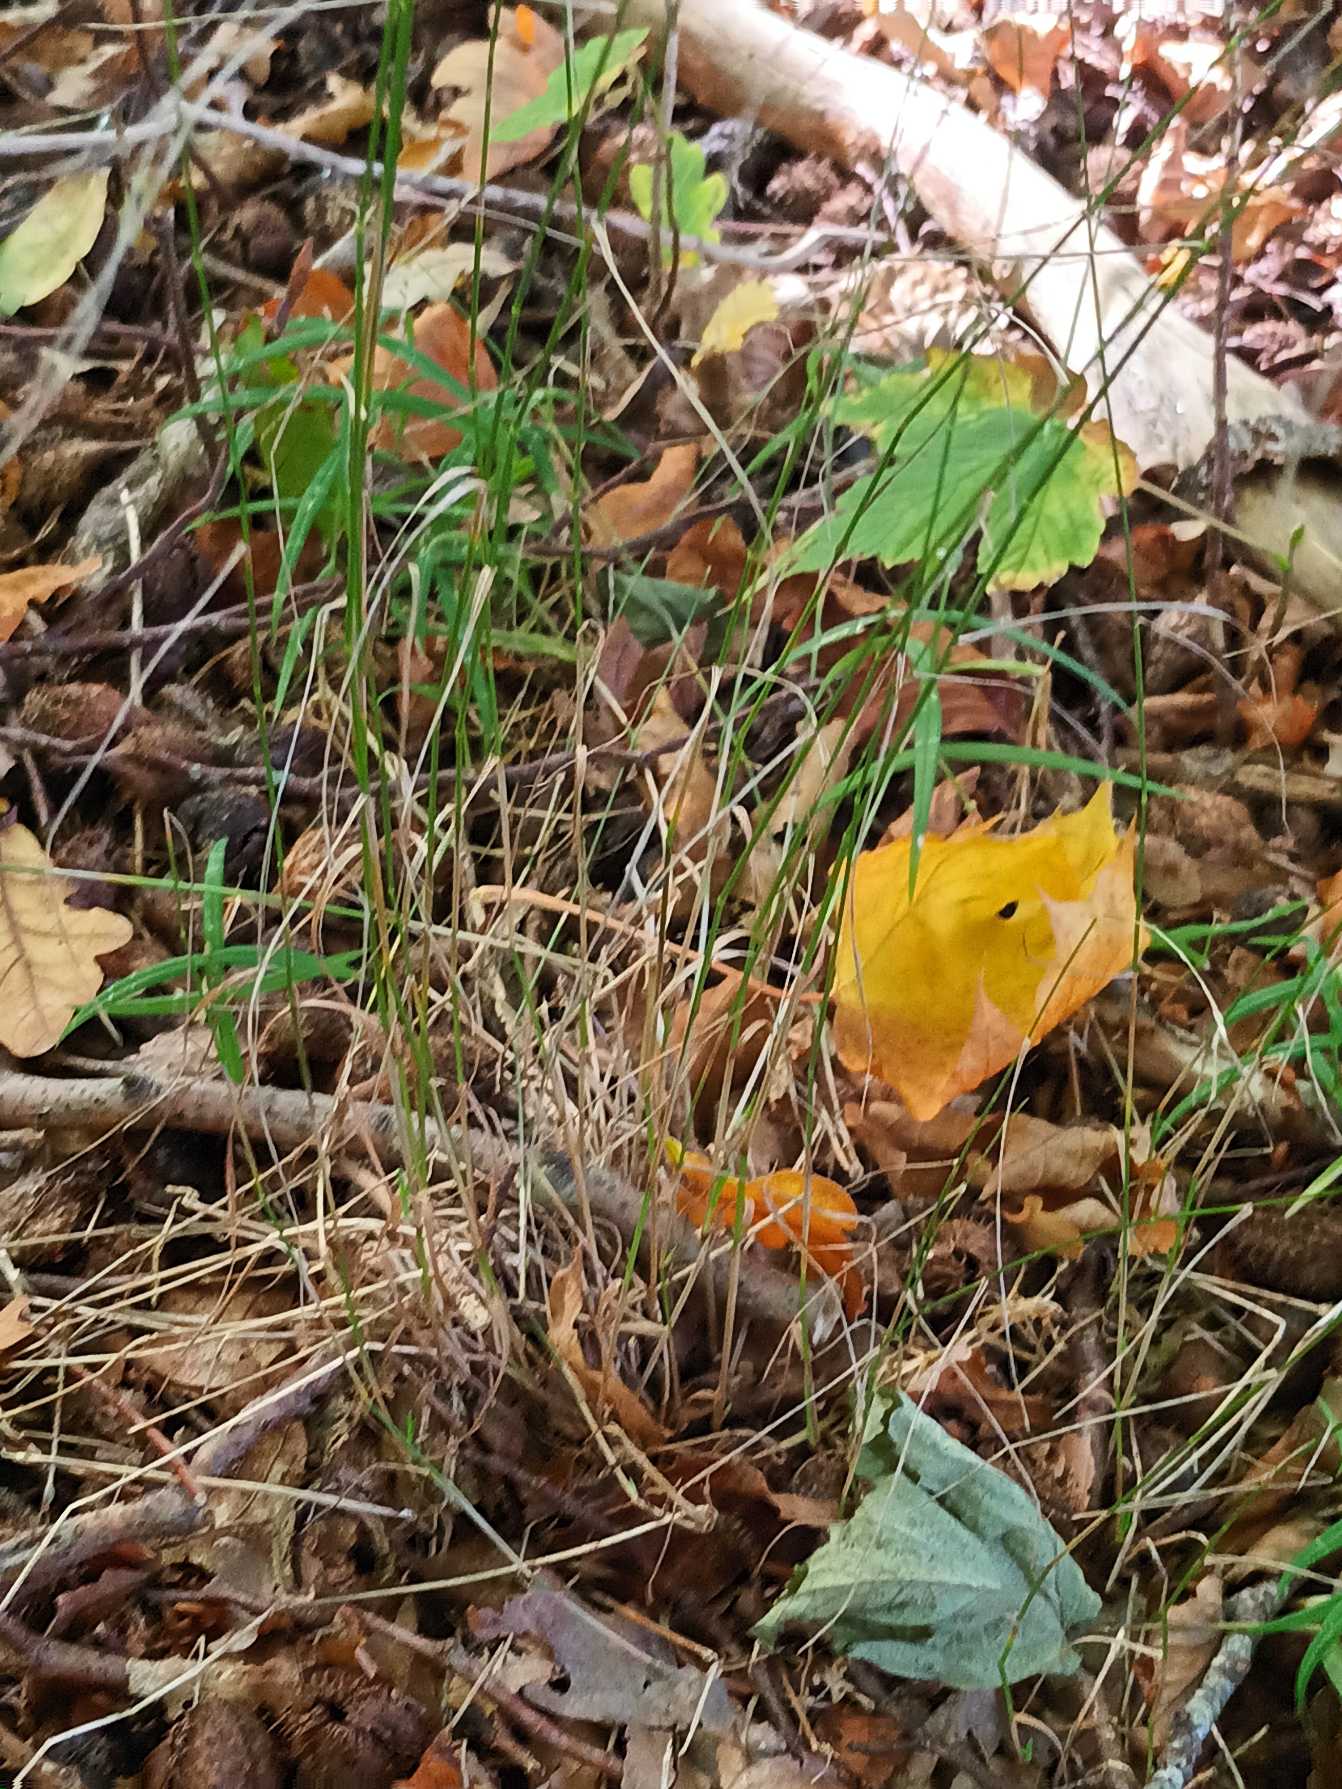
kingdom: Plantae
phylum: Tracheophyta
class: Liliopsida
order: Poales
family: Poaceae
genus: Poa
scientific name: Poa nemoralis
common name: Lund-rapgræs
